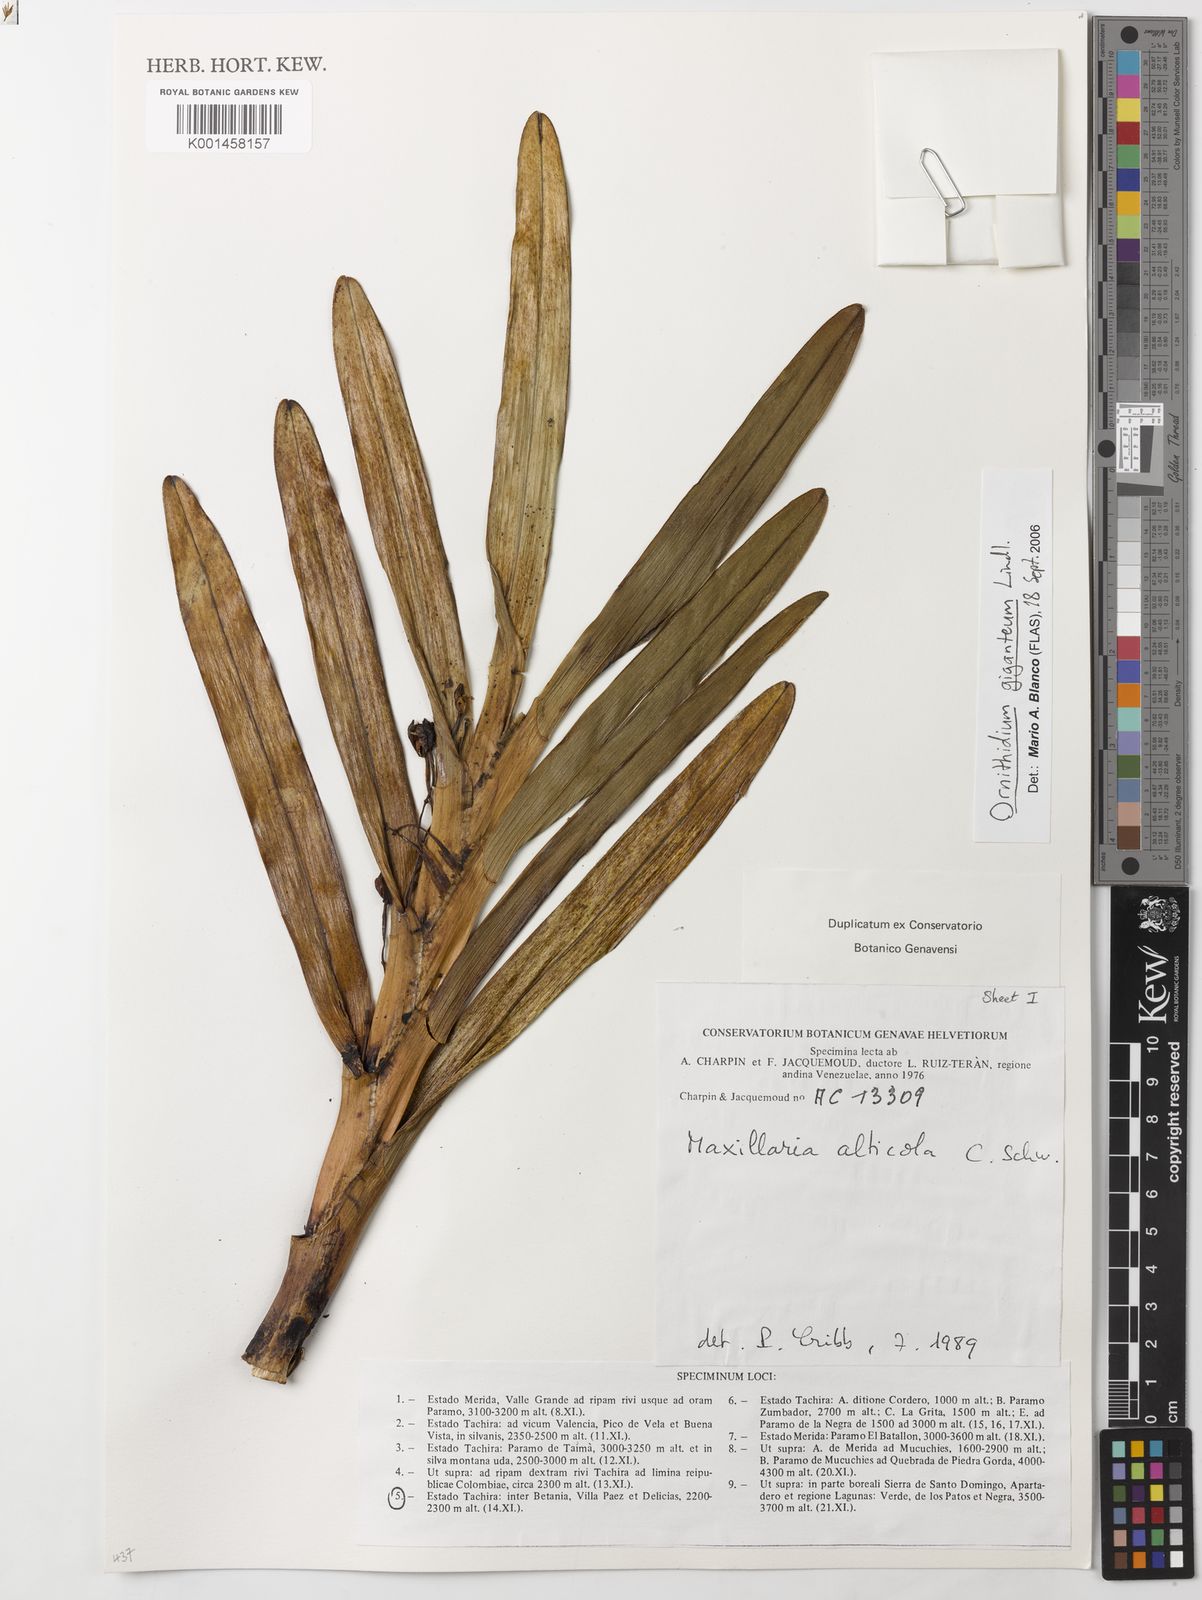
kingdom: Plantae
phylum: Tracheophyta
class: Liliopsida
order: Asparagales
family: Orchidaceae
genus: Maxillaria
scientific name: Maxillaria aurea
